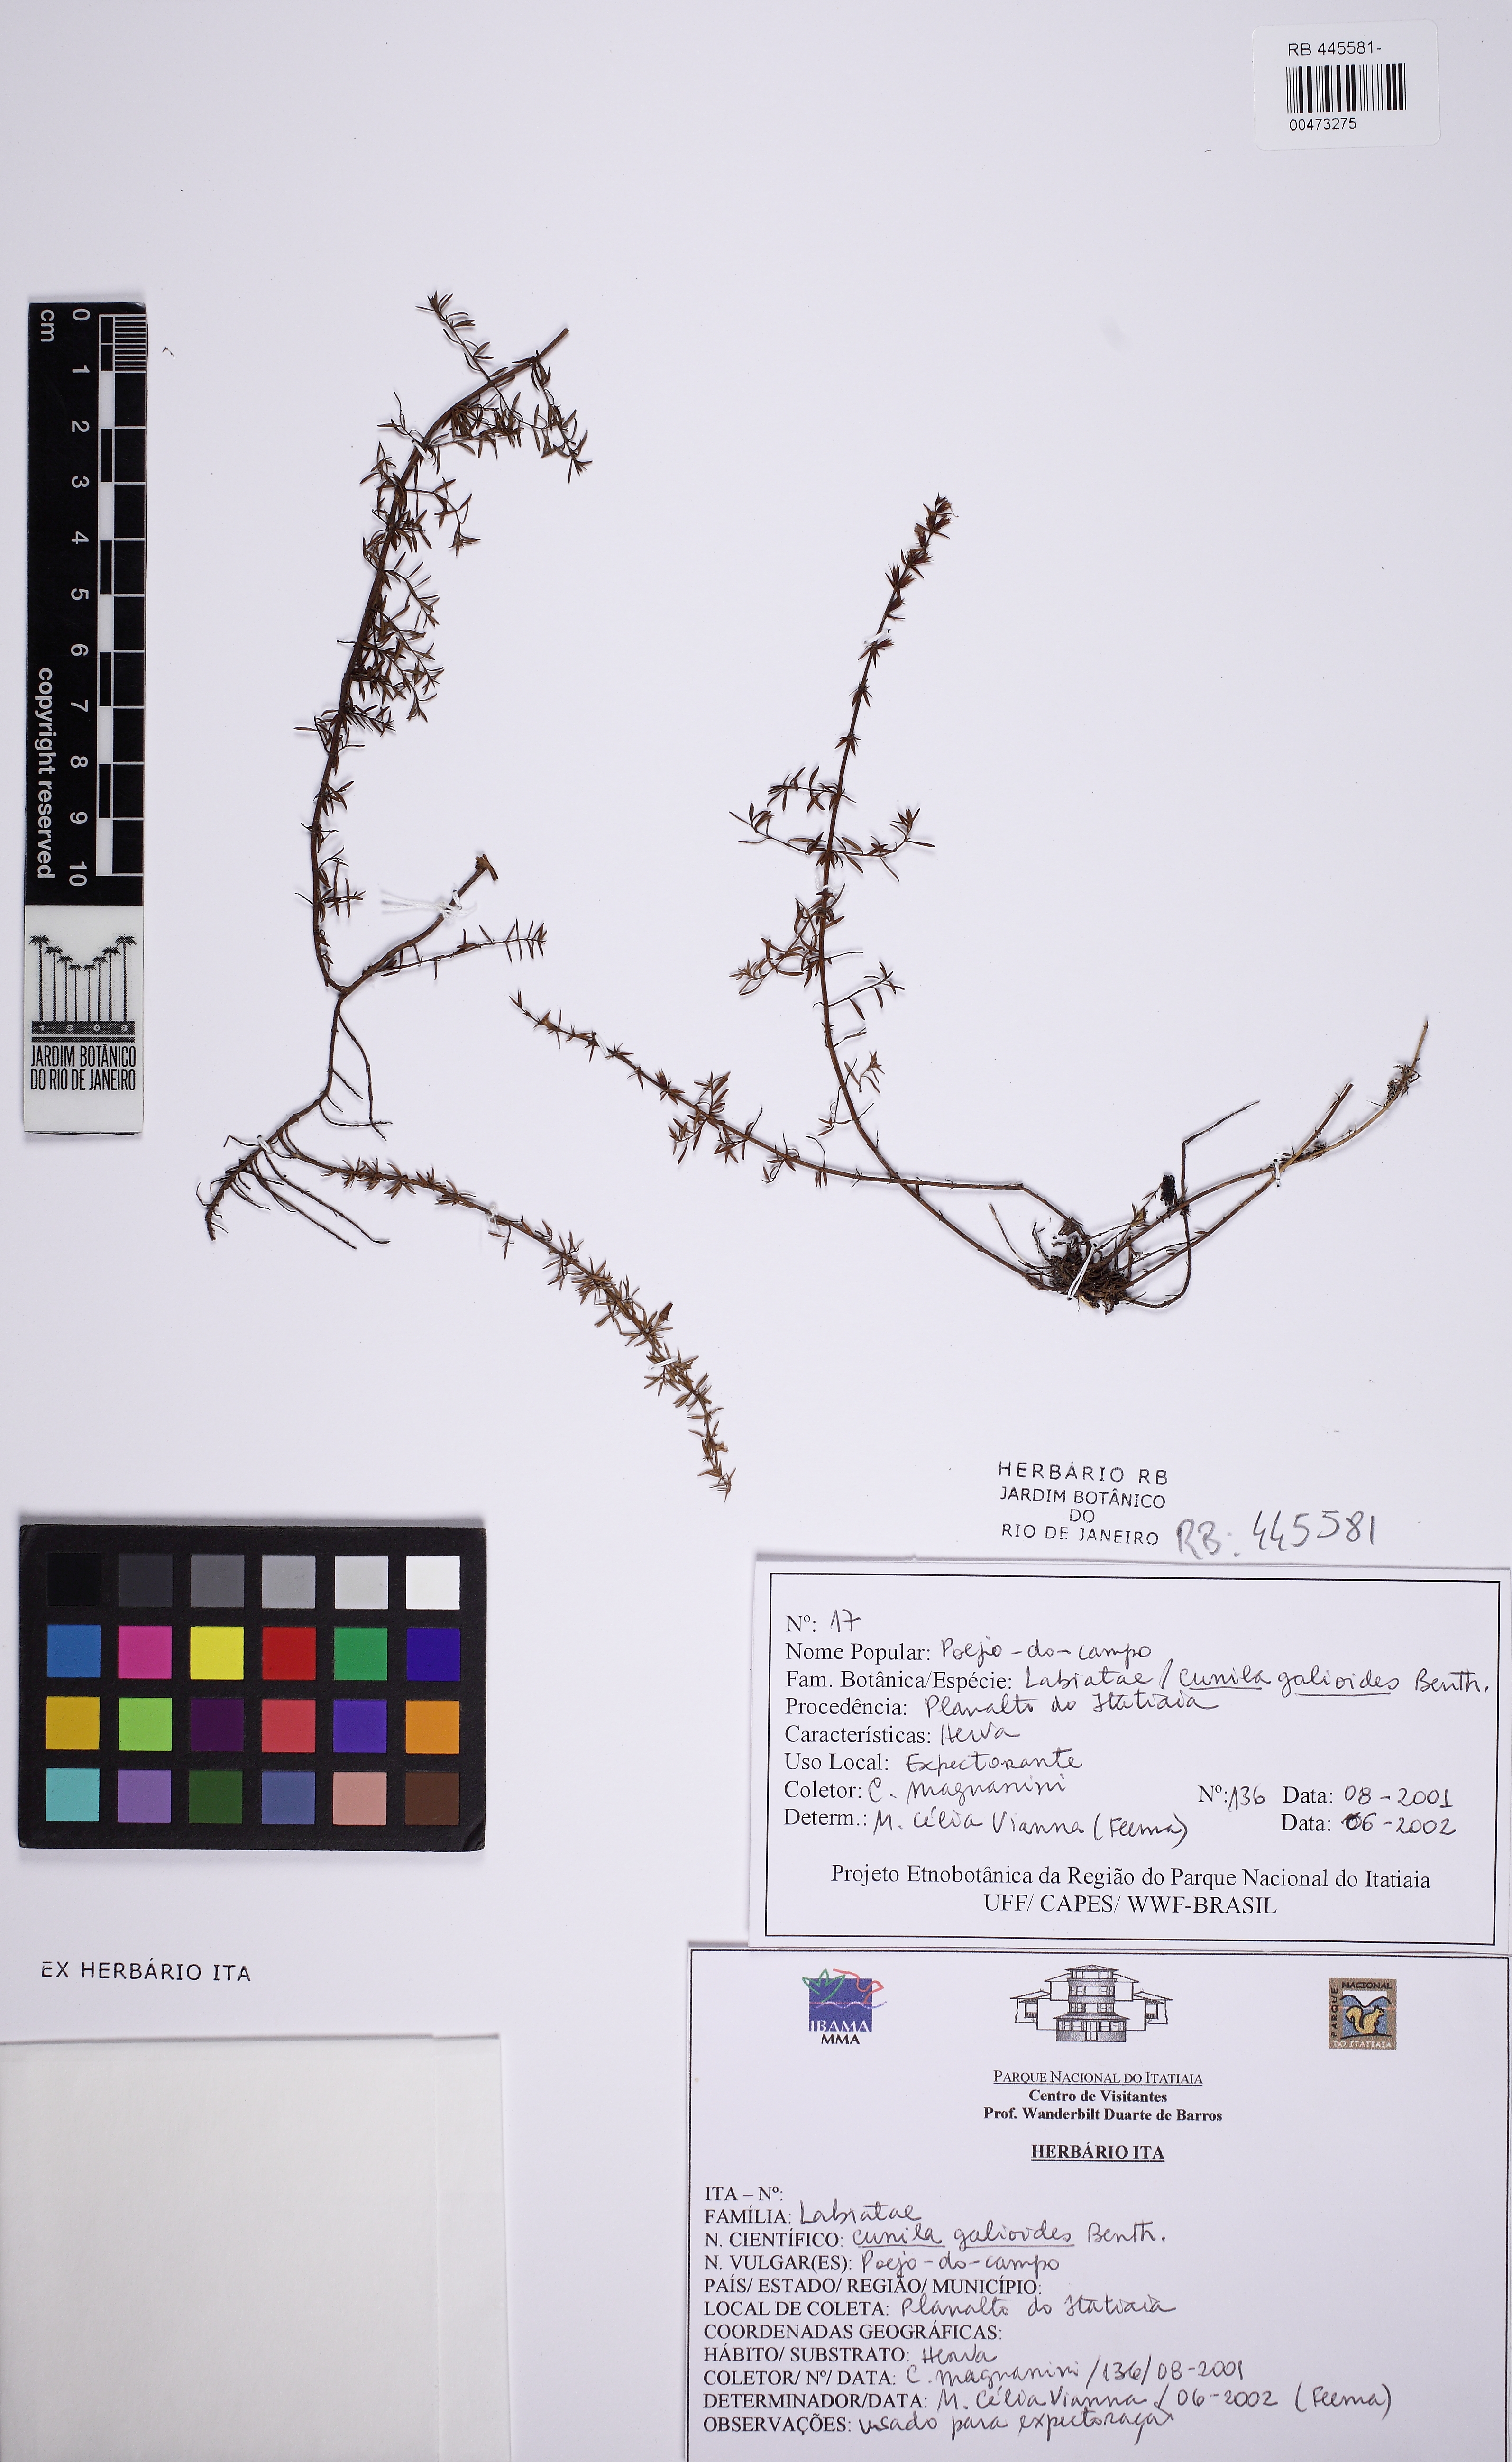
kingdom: Plantae
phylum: Tracheophyta
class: Magnoliopsida
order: Lamiales
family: Lamiaceae
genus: Cunila
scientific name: Cunila galioides
